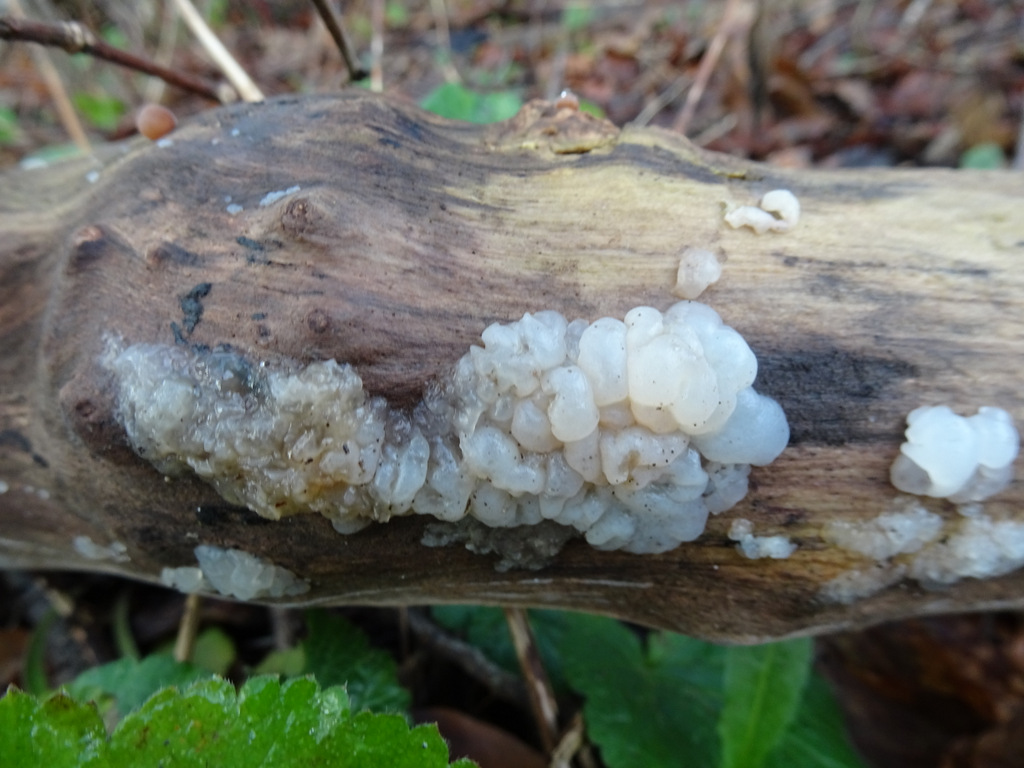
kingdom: Fungi
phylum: Basidiomycota
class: Agaricomycetes
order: Auriculariales
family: Auriculariaceae
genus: Exidia
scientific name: Exidia thuretiana
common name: hvidlig bævretop
